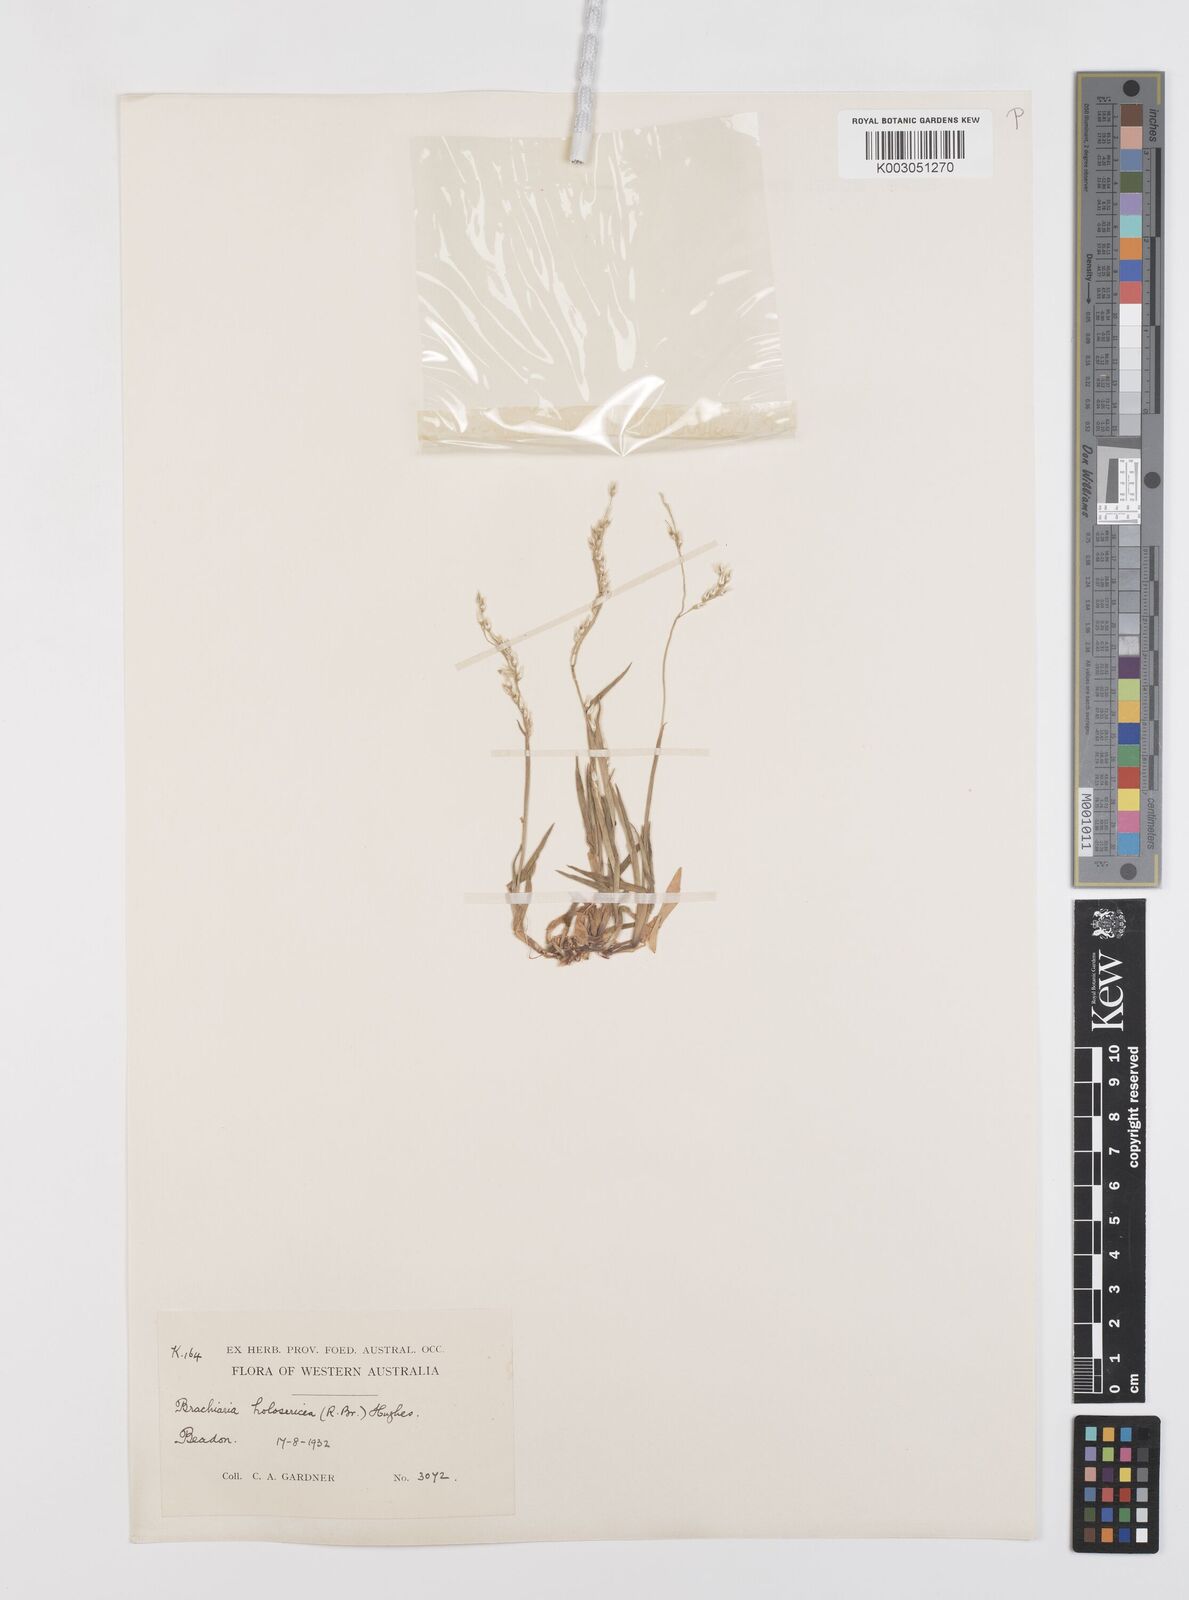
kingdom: Plantae
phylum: Tracheophyta
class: Liliopsida
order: Poales
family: Poaceae
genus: Urochloa
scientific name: Urochloa holosericea
